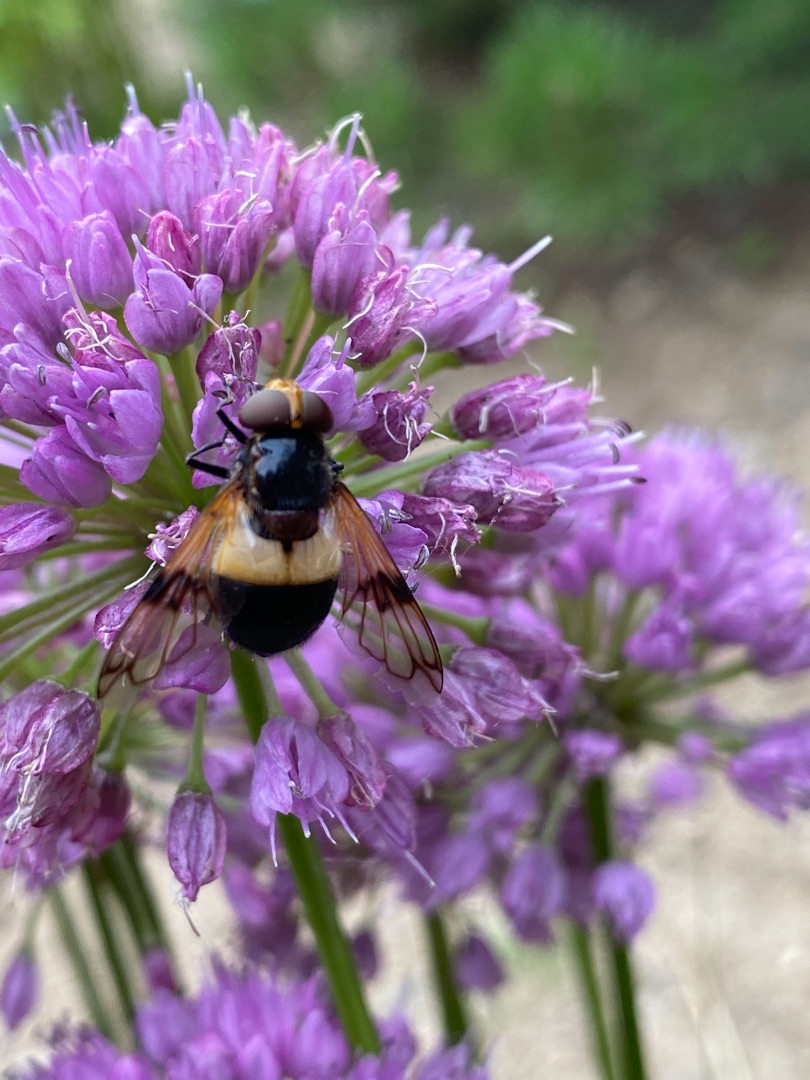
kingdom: Animalia
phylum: Arthropoda
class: Insecta
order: Diptera
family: Syrphidae
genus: Volucella
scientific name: Volucella pellucens
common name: Hvidbåndet humlesvirreflue
